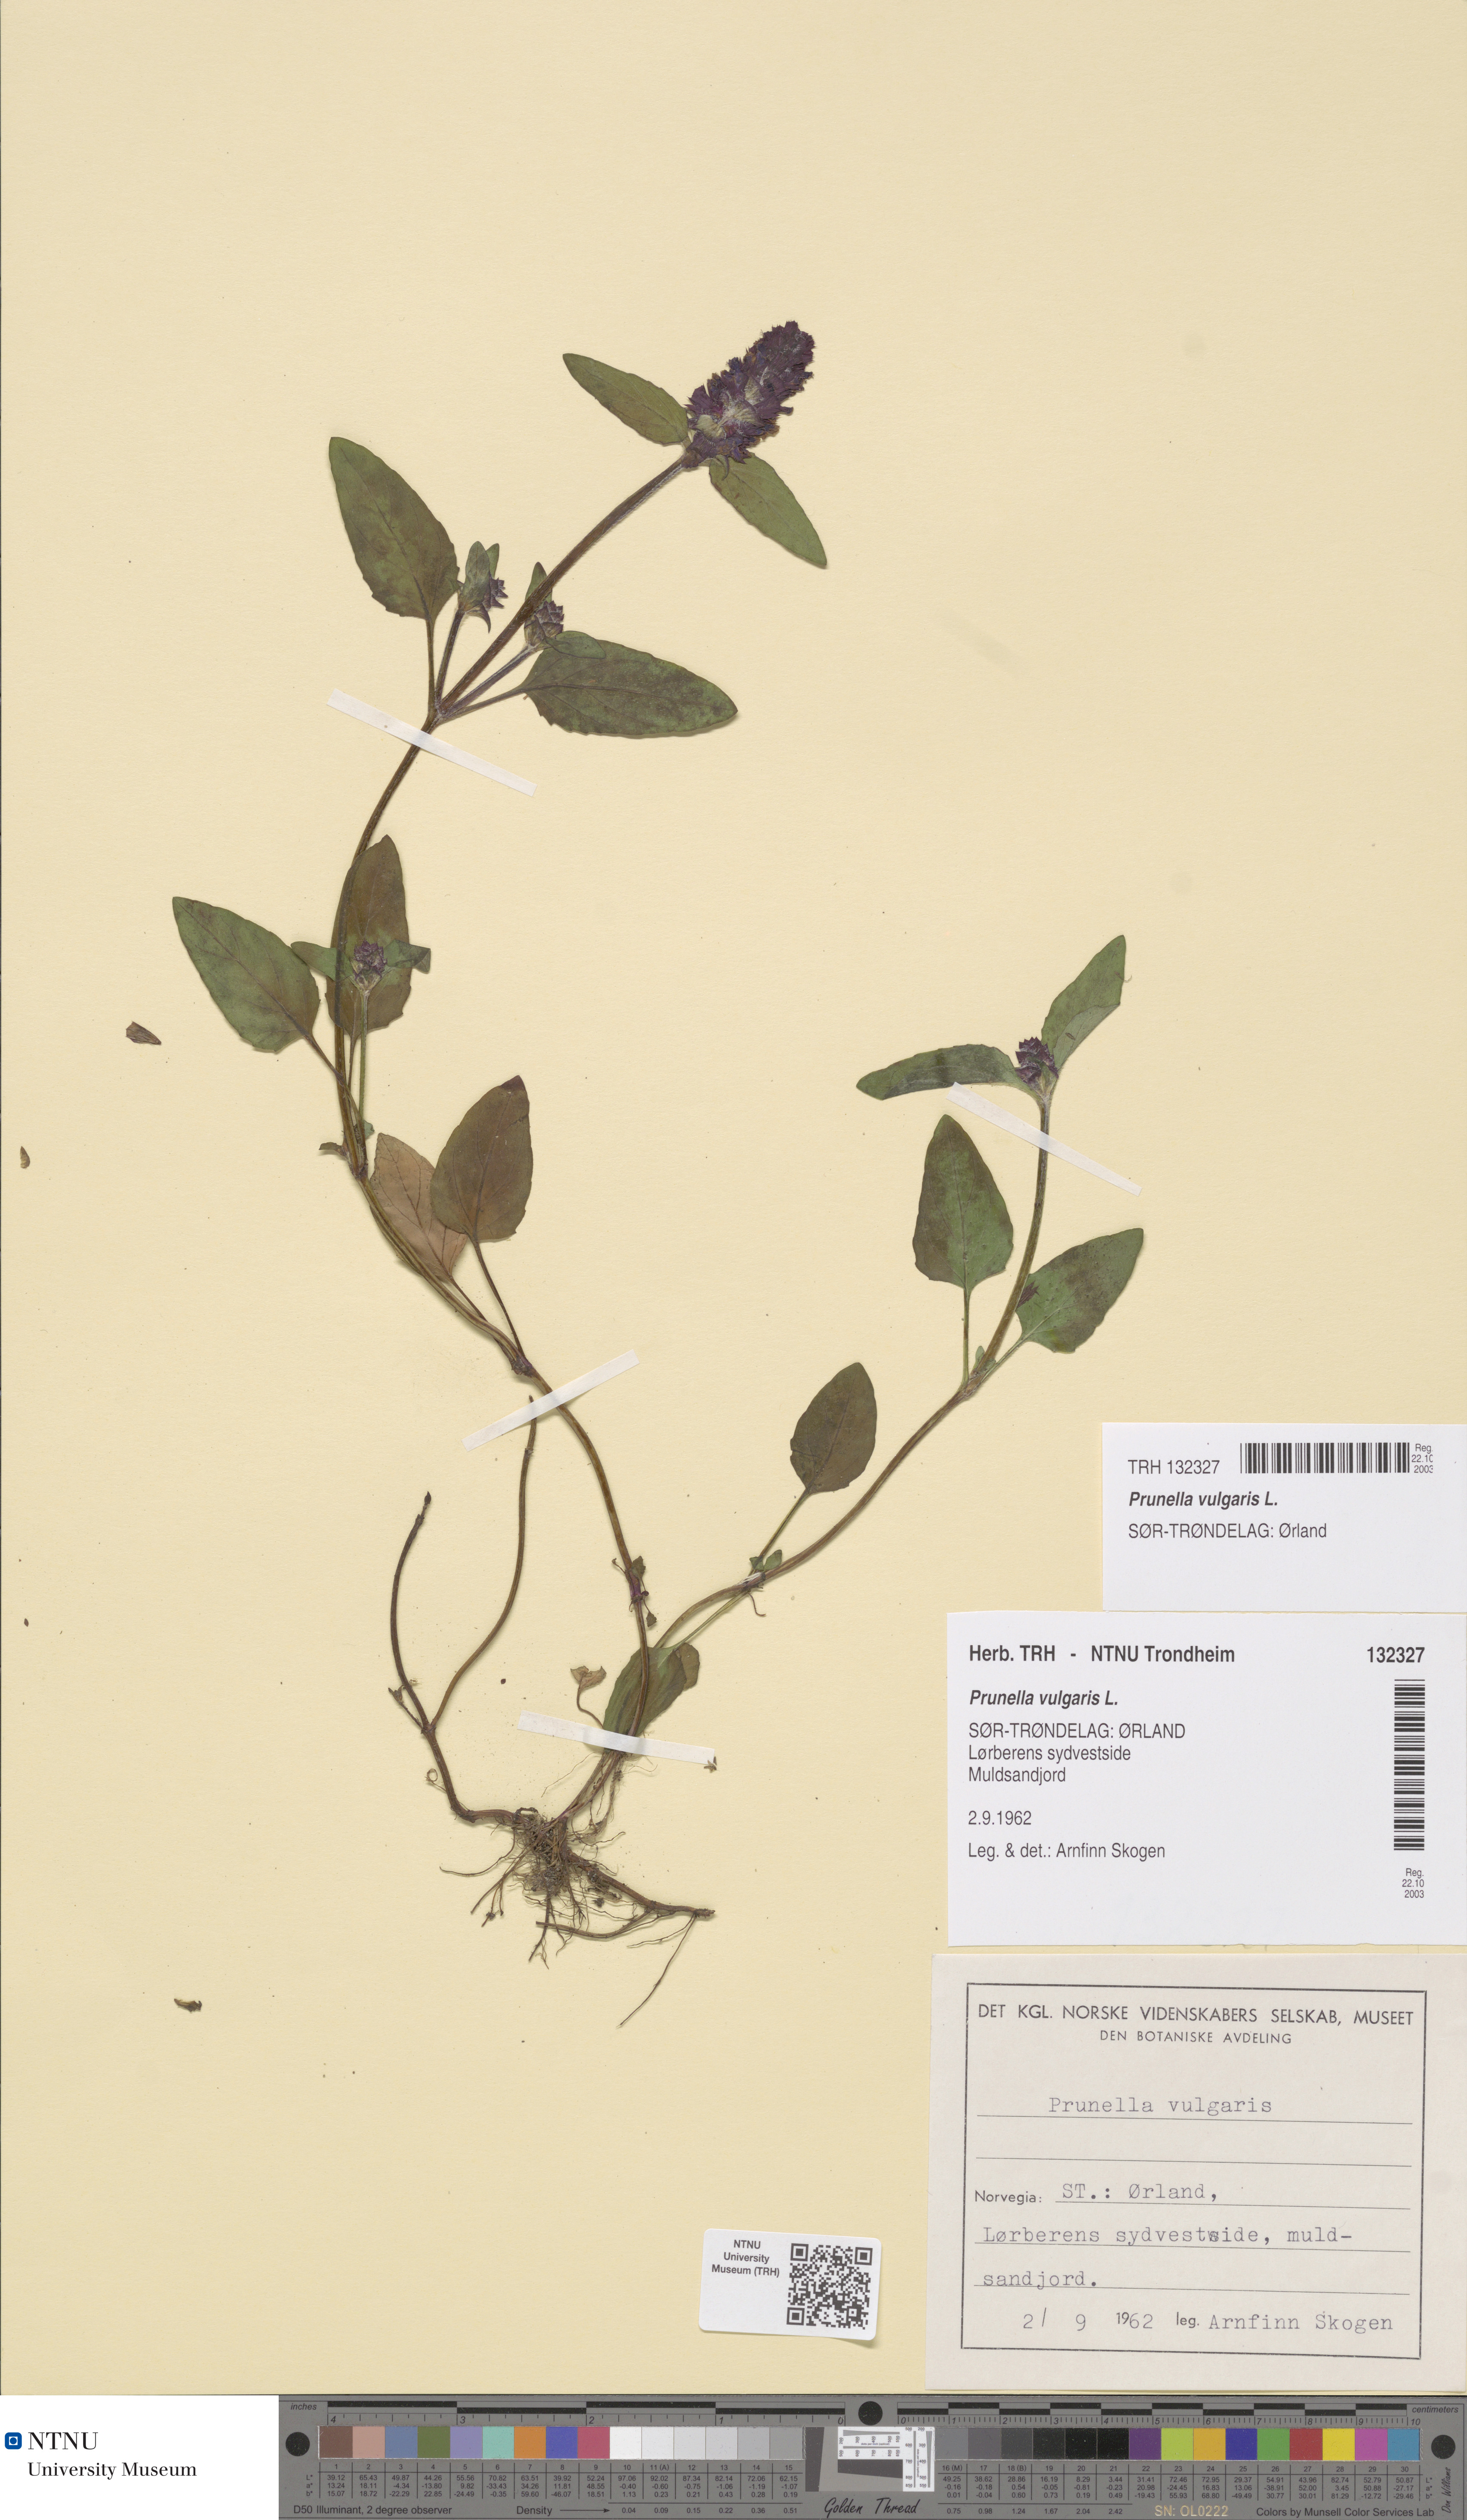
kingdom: Plantae
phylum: Tracheophyta
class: Magnoliopsida
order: Lamiales
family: Lamiaceae
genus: Prunella
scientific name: Prunella vulgaris
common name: Heal-all
